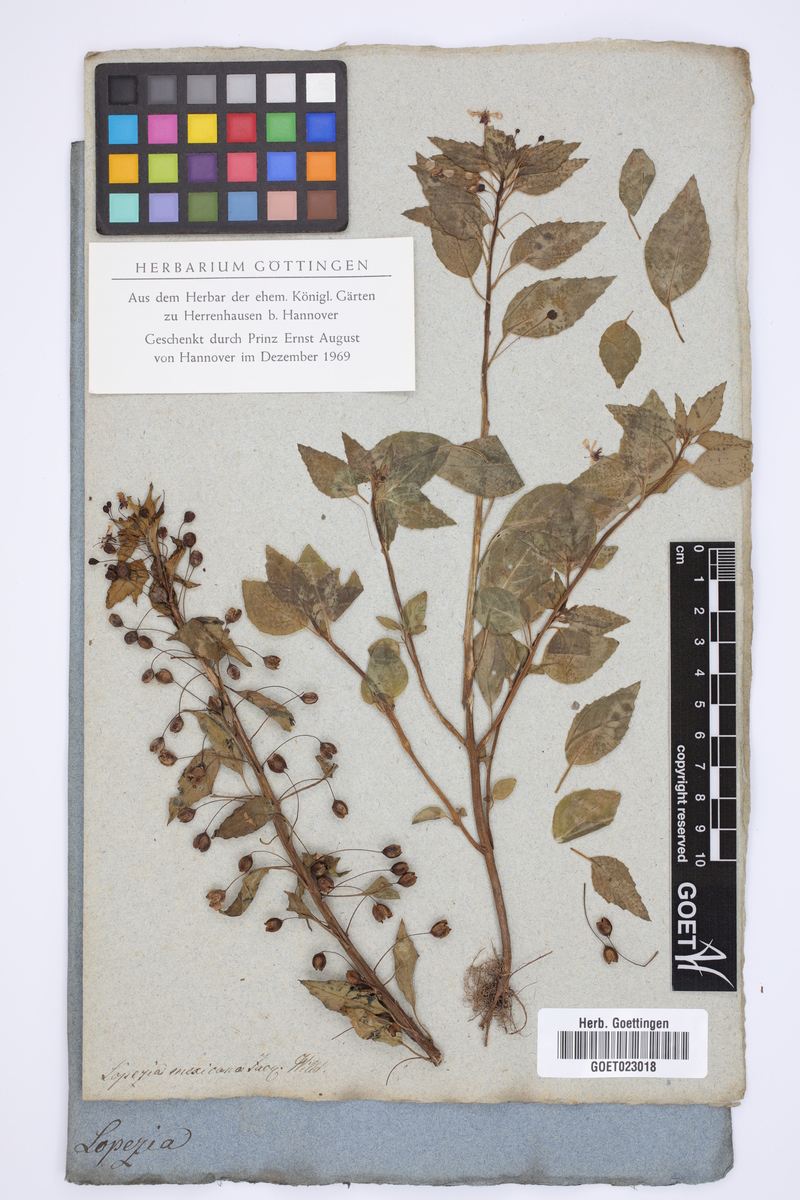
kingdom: Plantae
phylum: Tracheophyta
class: Magnoliopsida
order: Myrtales
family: Onagraceae
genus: Lopezia
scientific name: Lopezia racemosa
